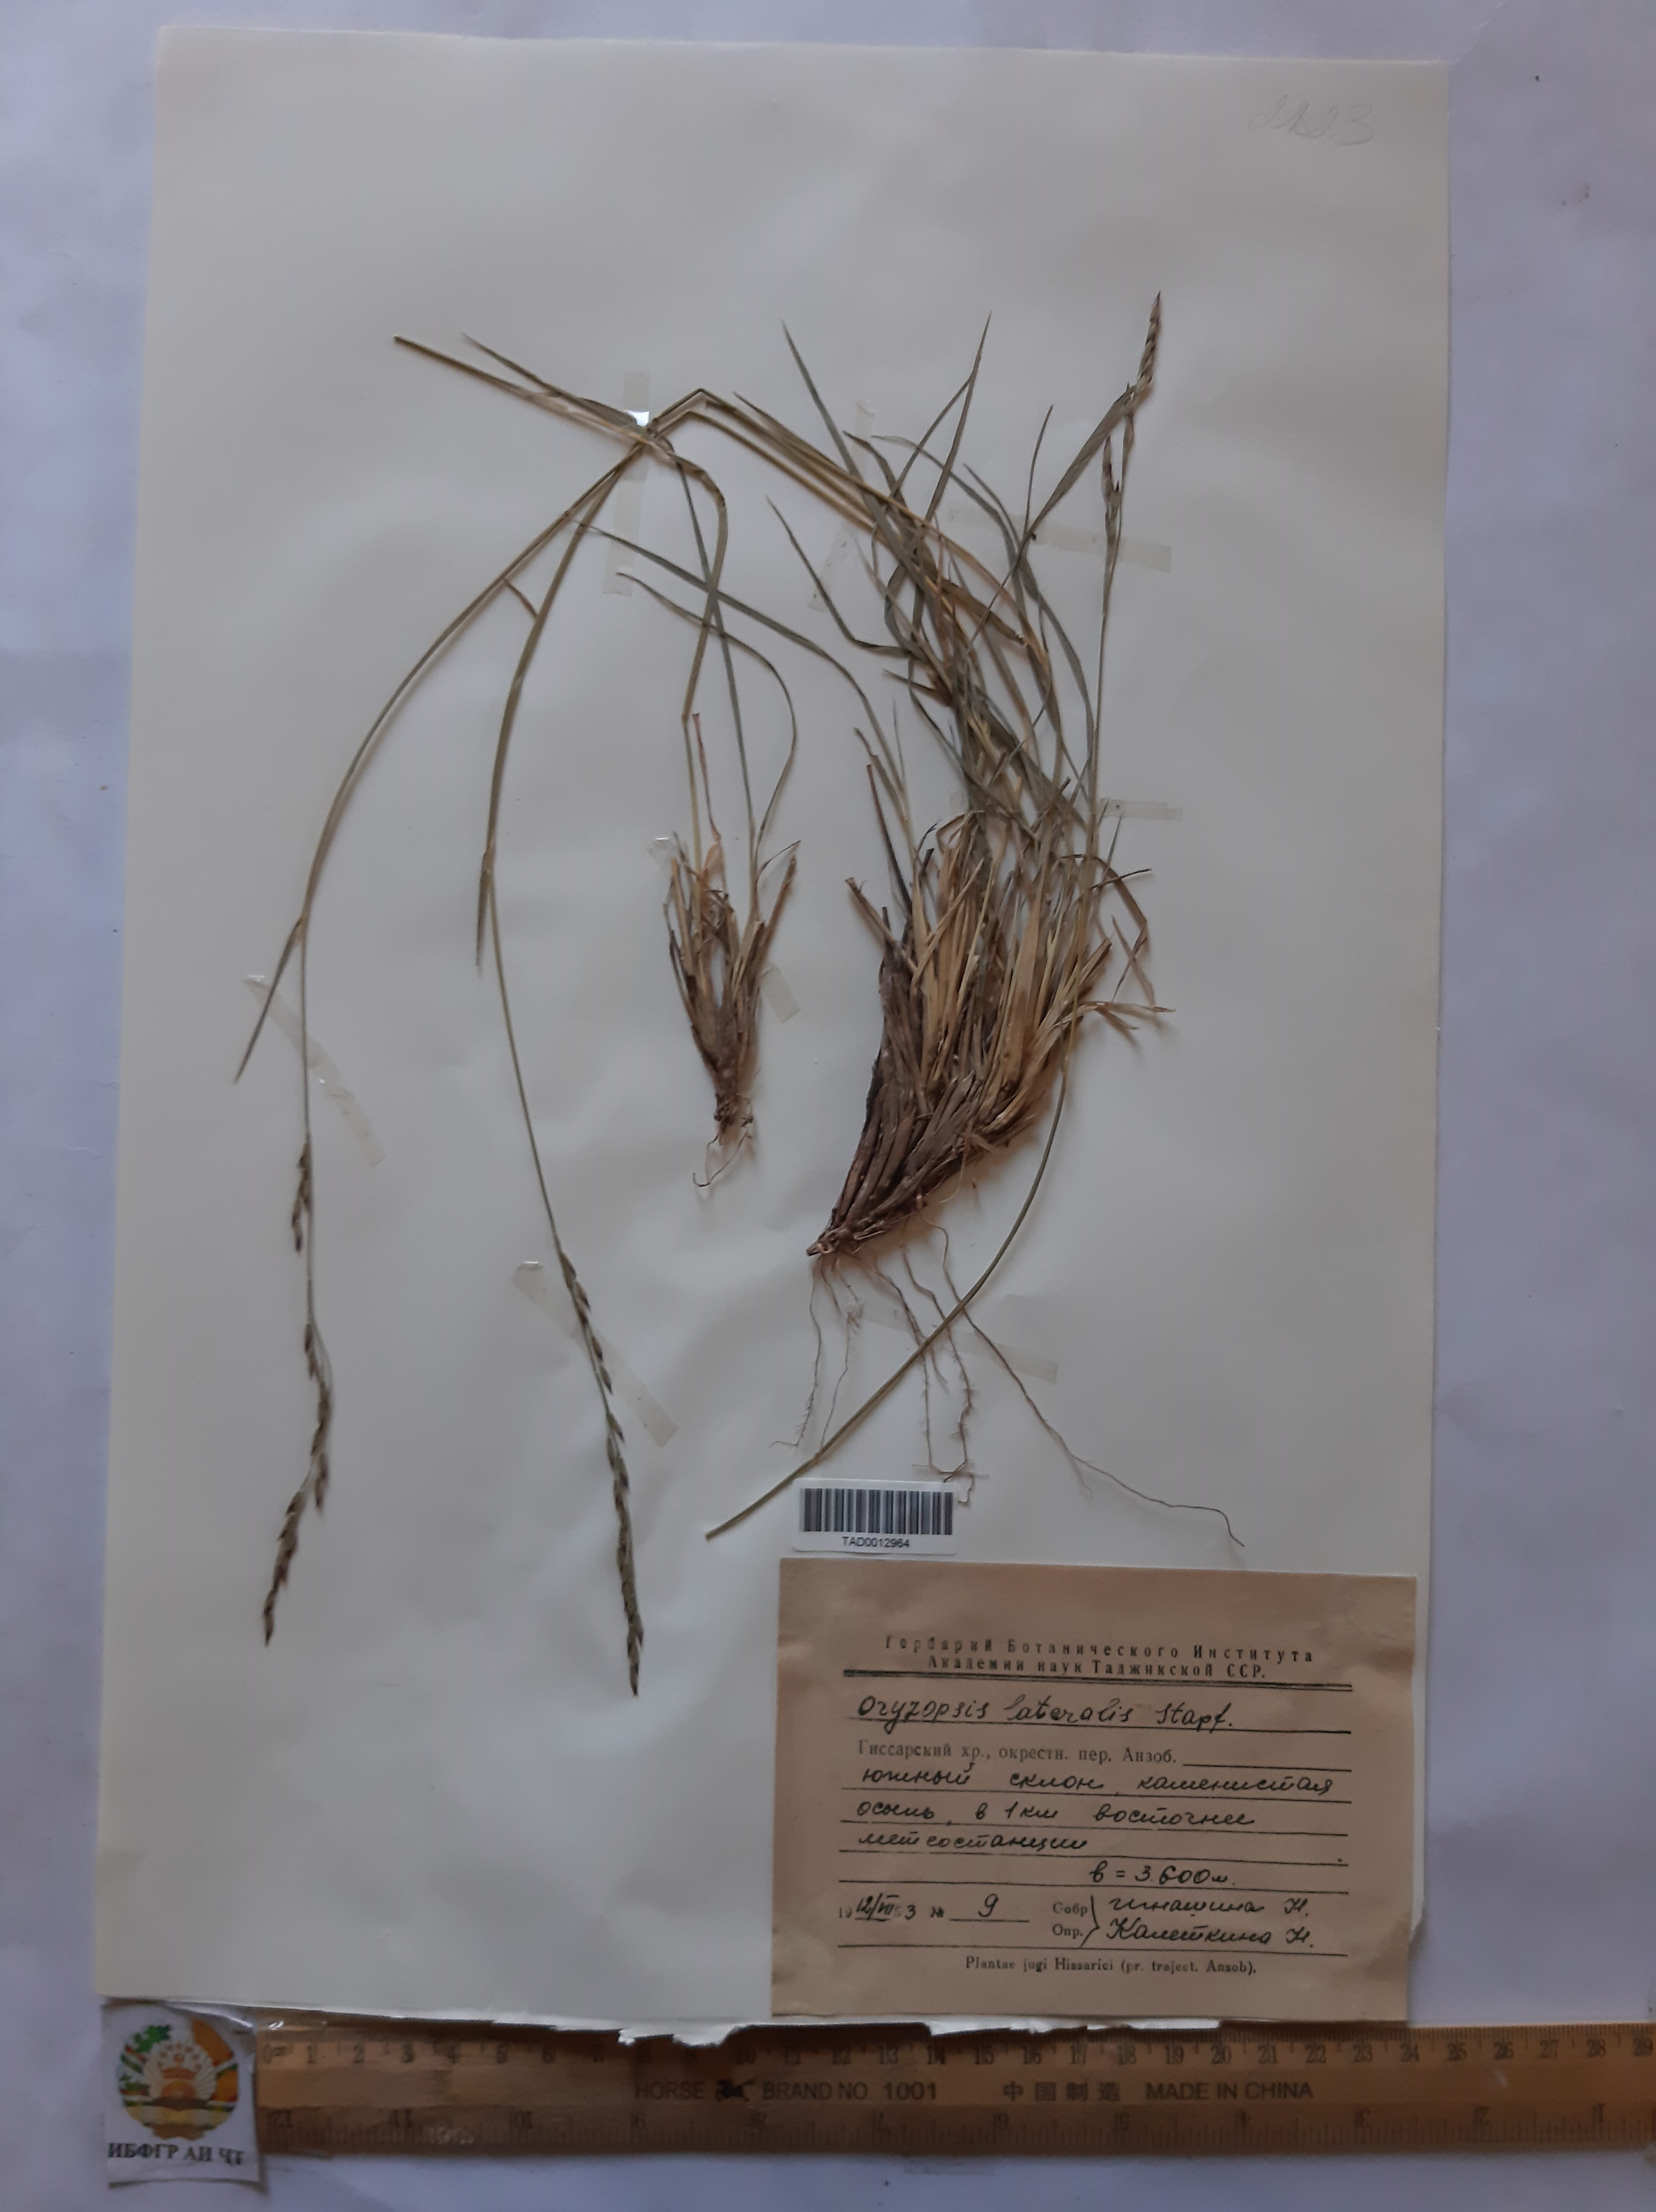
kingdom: Plantae
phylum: Tracheophyta
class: Liliopsida
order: Poales
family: Poaceae
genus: Piptatherum
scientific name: Piptatherum laterale
